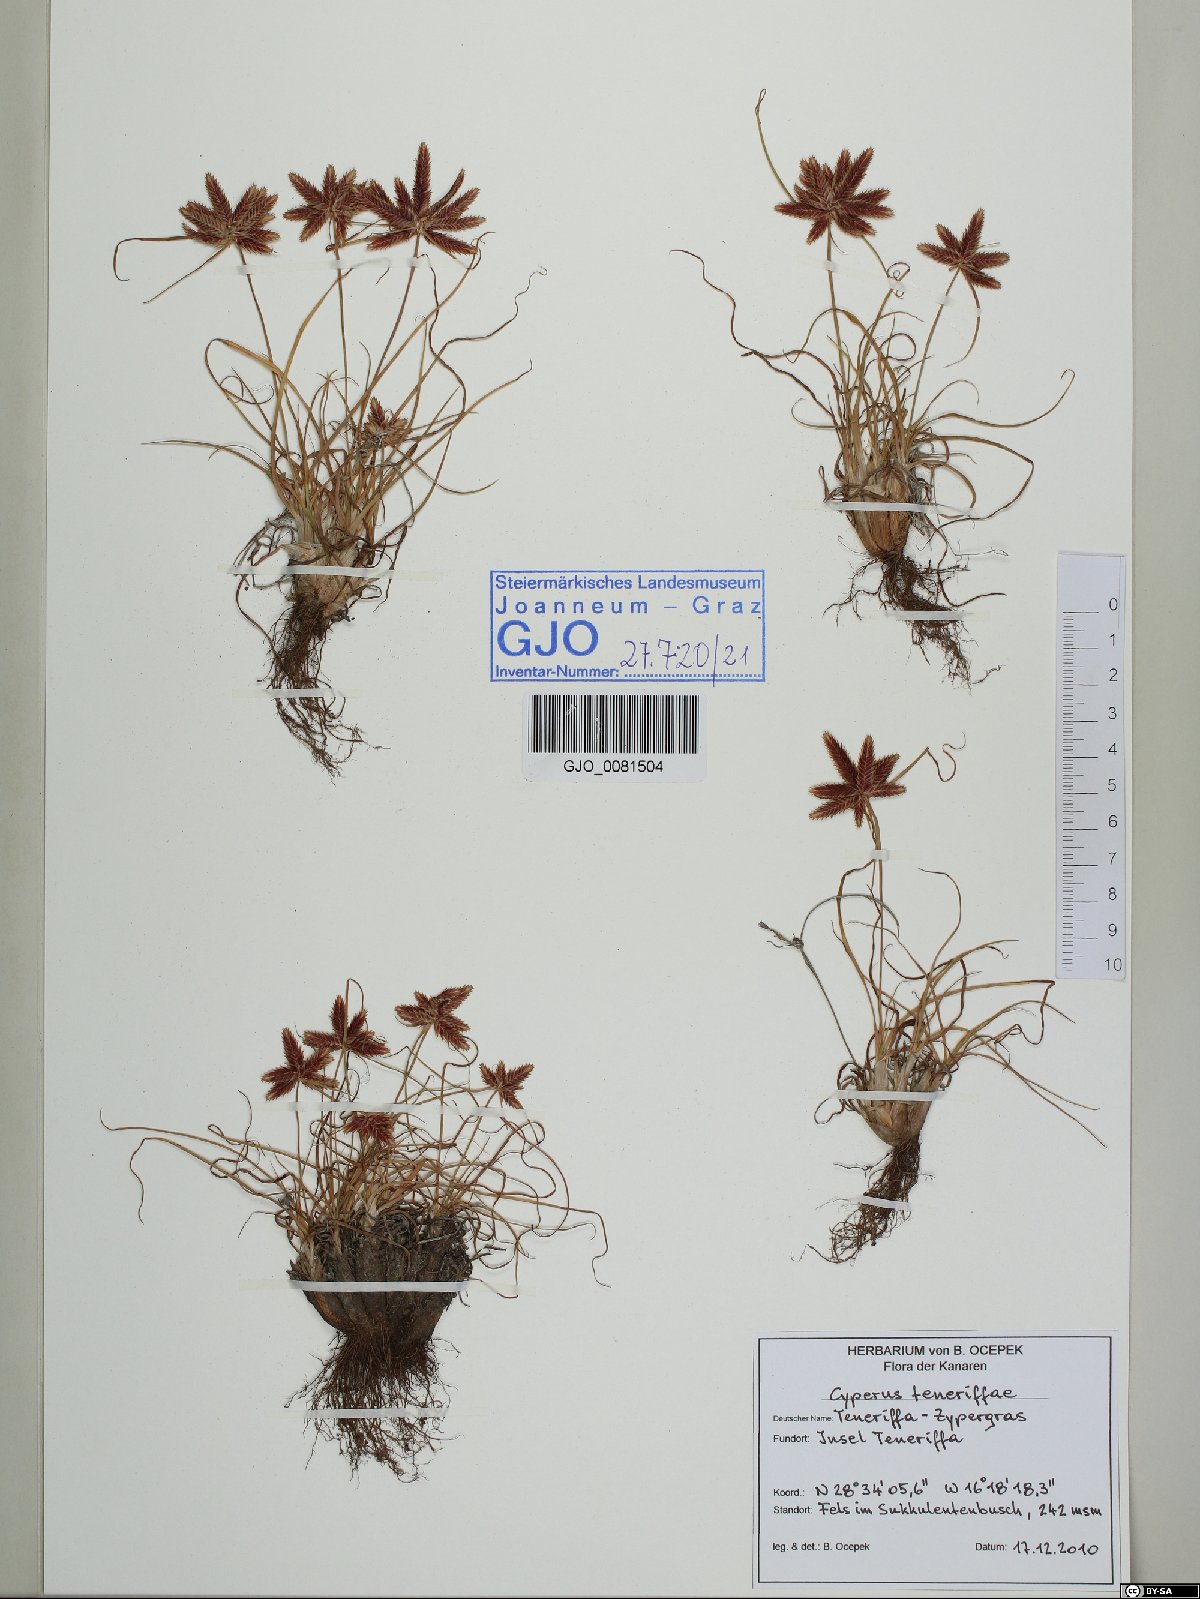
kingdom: Plantae
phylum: Tracheophyta
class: Liliopsida
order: Poales
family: Cyperaceae
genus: Cyperus
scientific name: Cyperus rubicundus
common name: Coco-grass
